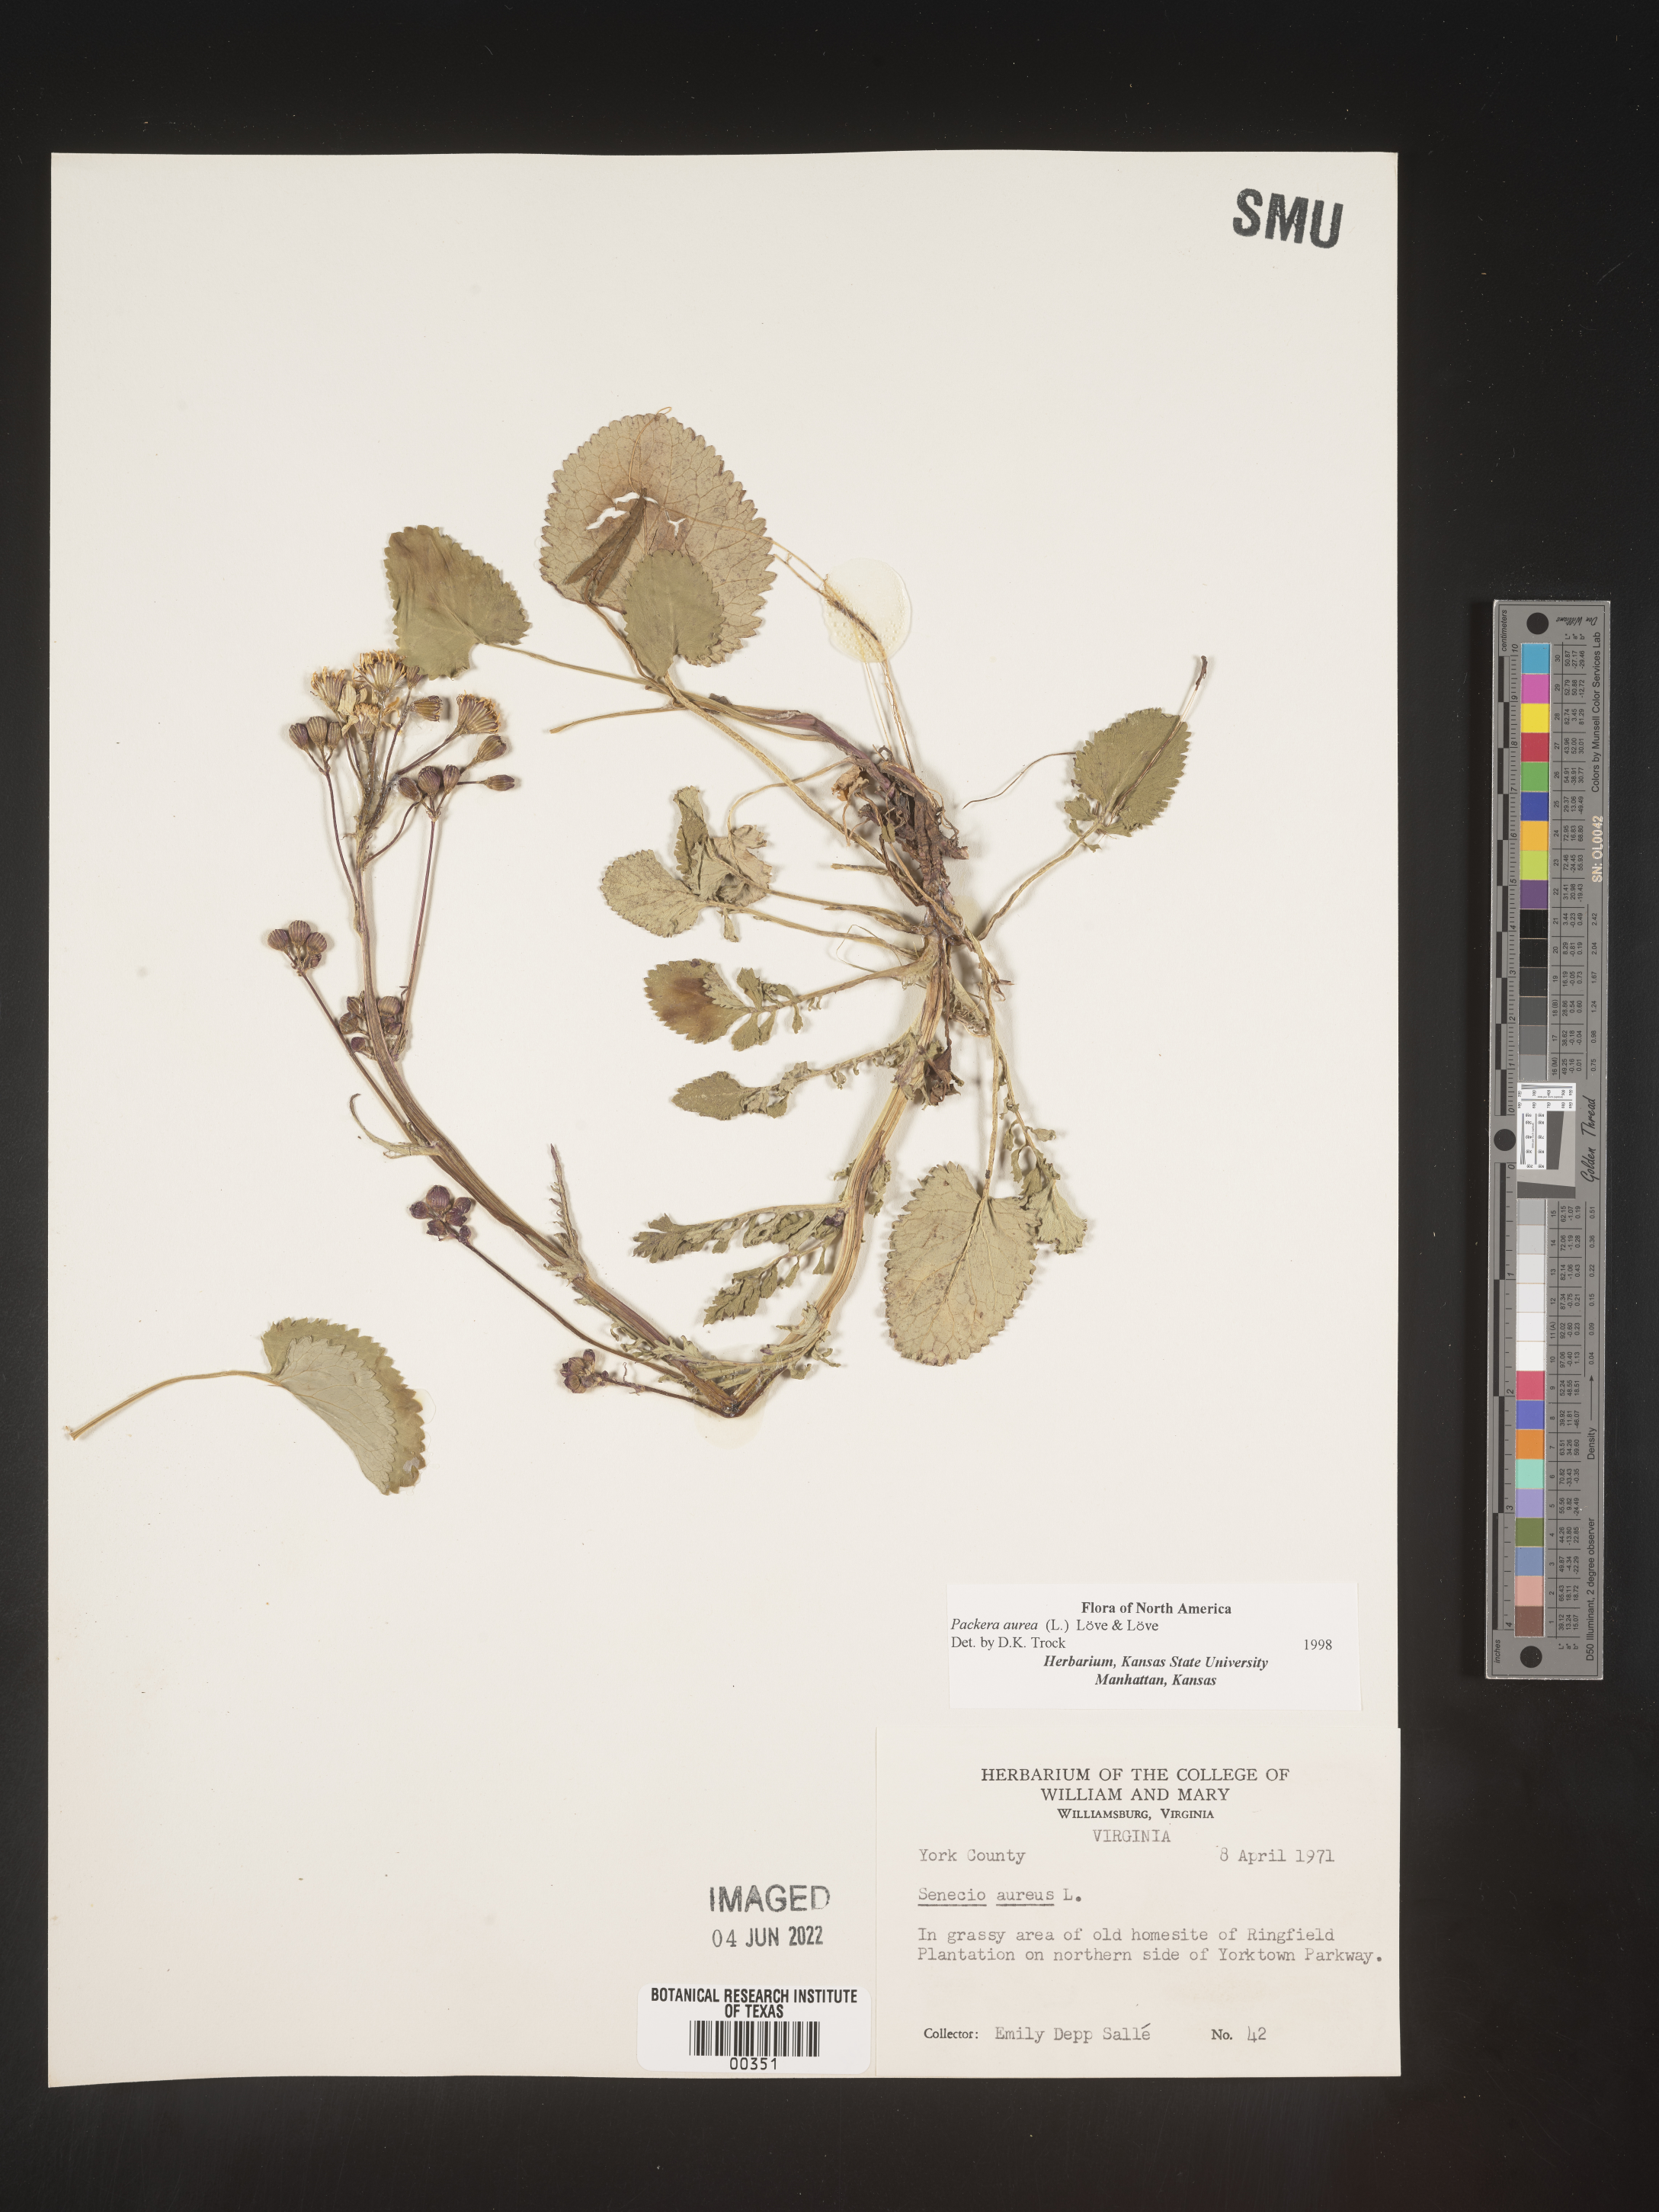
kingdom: Plantae
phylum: Tracheophyta
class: Magnoliopsida
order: Asterales
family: Asteraceae
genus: Packera
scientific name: Packera aurea
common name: Golden groundsel
